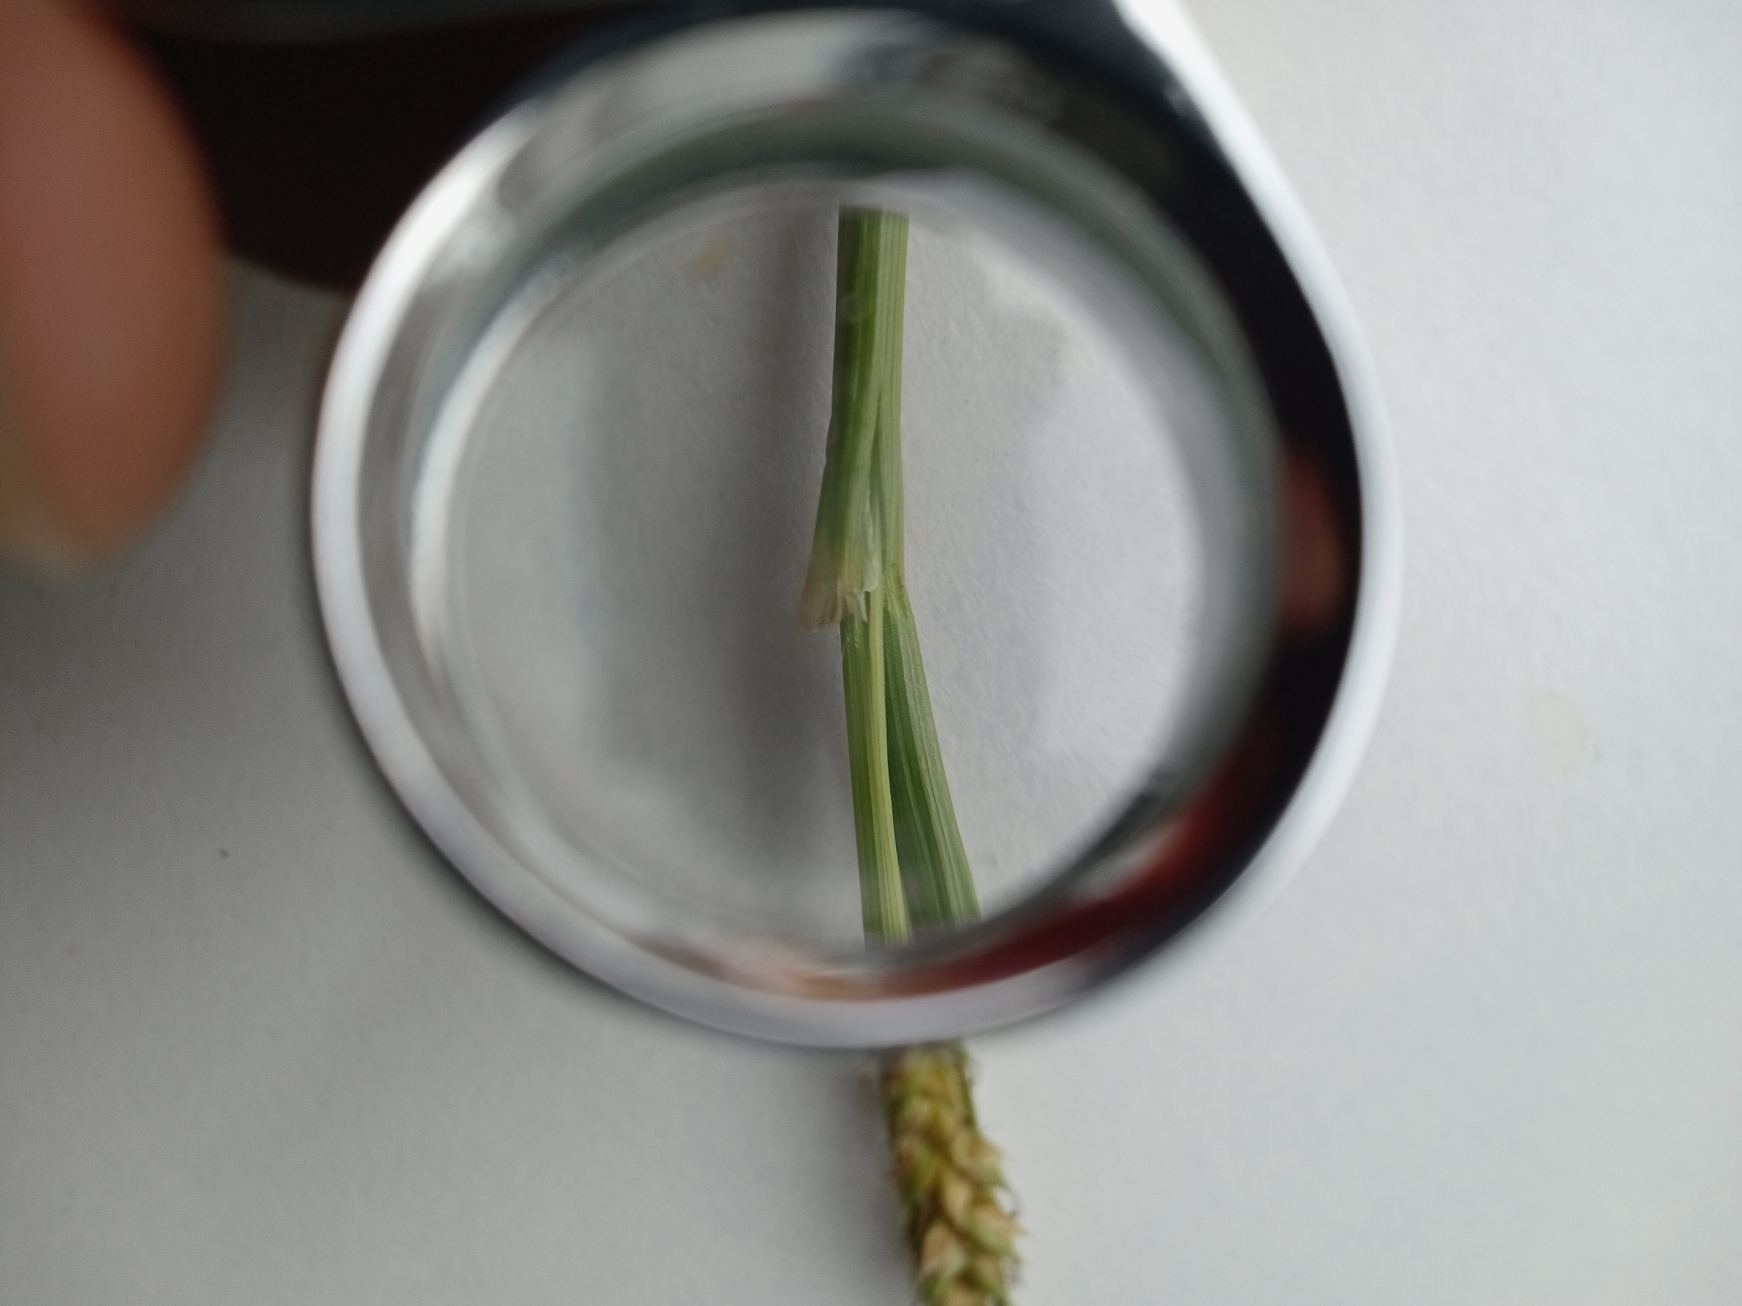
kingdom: Plantae
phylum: Tracheophyta
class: Liliopsida
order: Poales
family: Cyperaceae
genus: Carex
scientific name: Carex distans
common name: Fjernakset star
